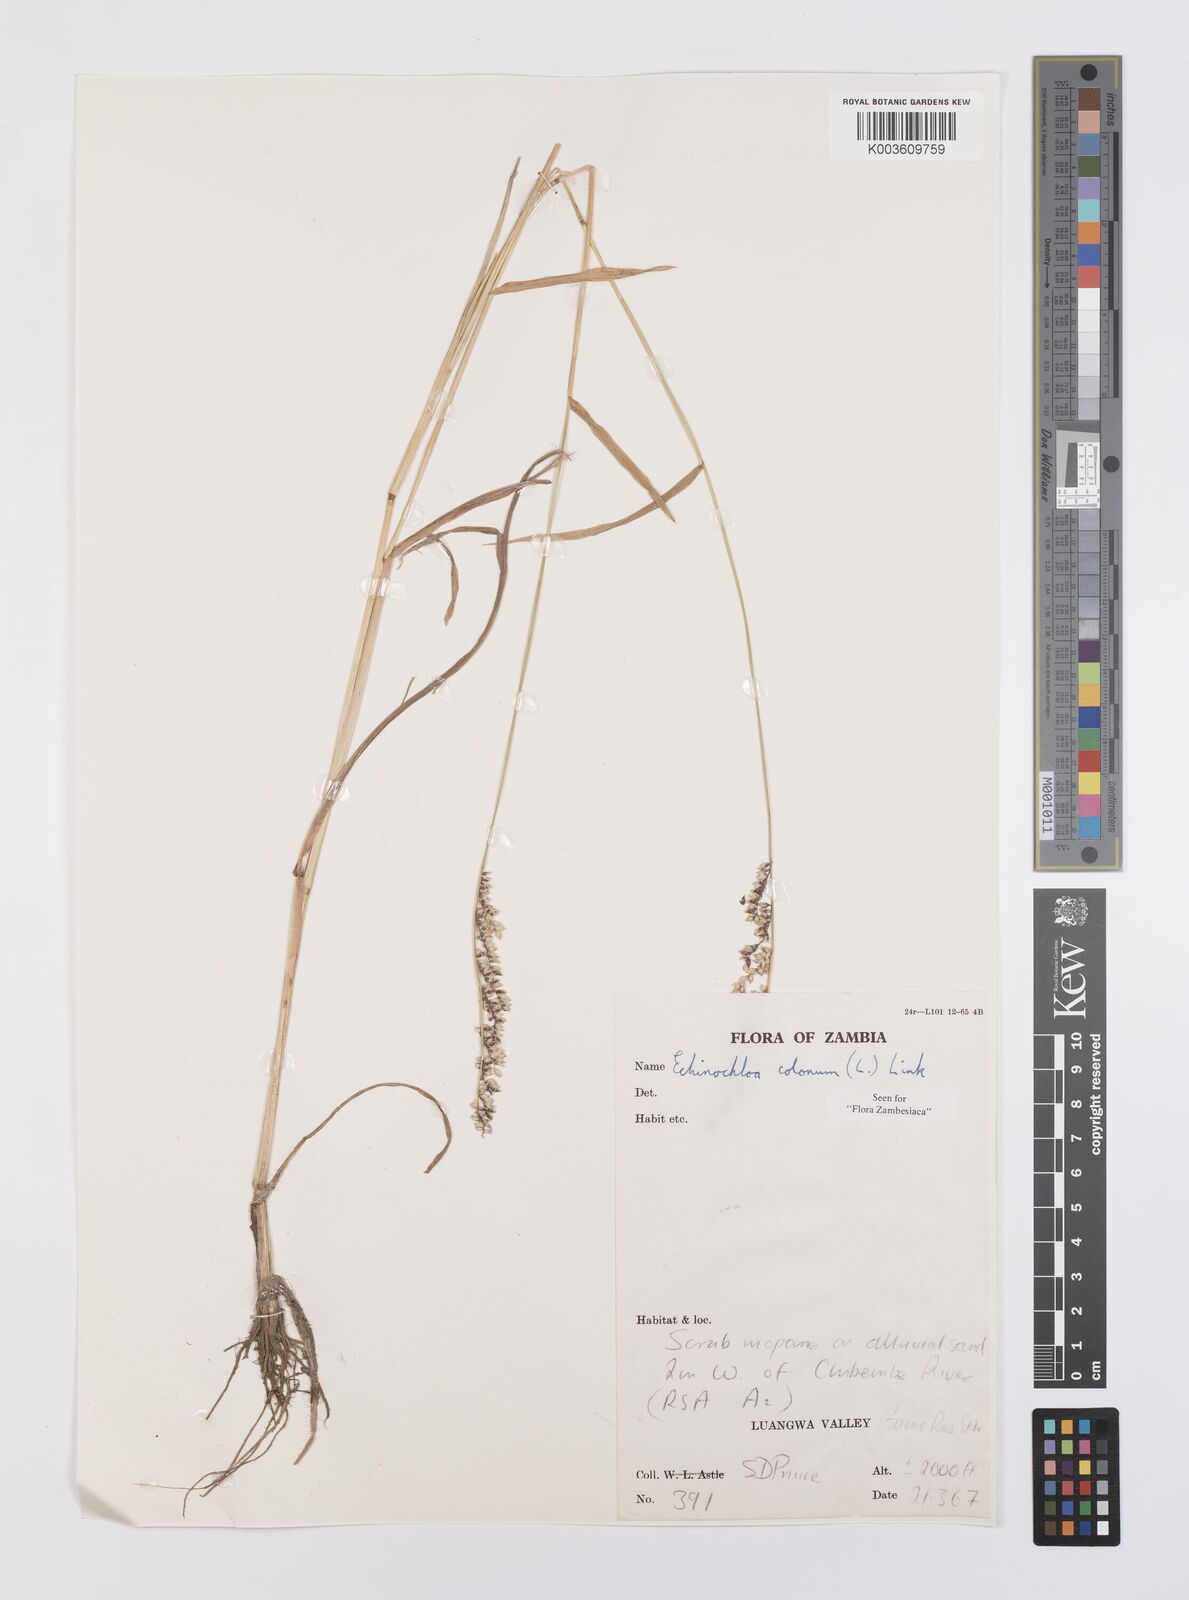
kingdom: Plantae
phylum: Tracheophyta
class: Liliopsida
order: Poales
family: Poaceae
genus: Echinochloa
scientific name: Echinochloa colonum
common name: Jungle rice
